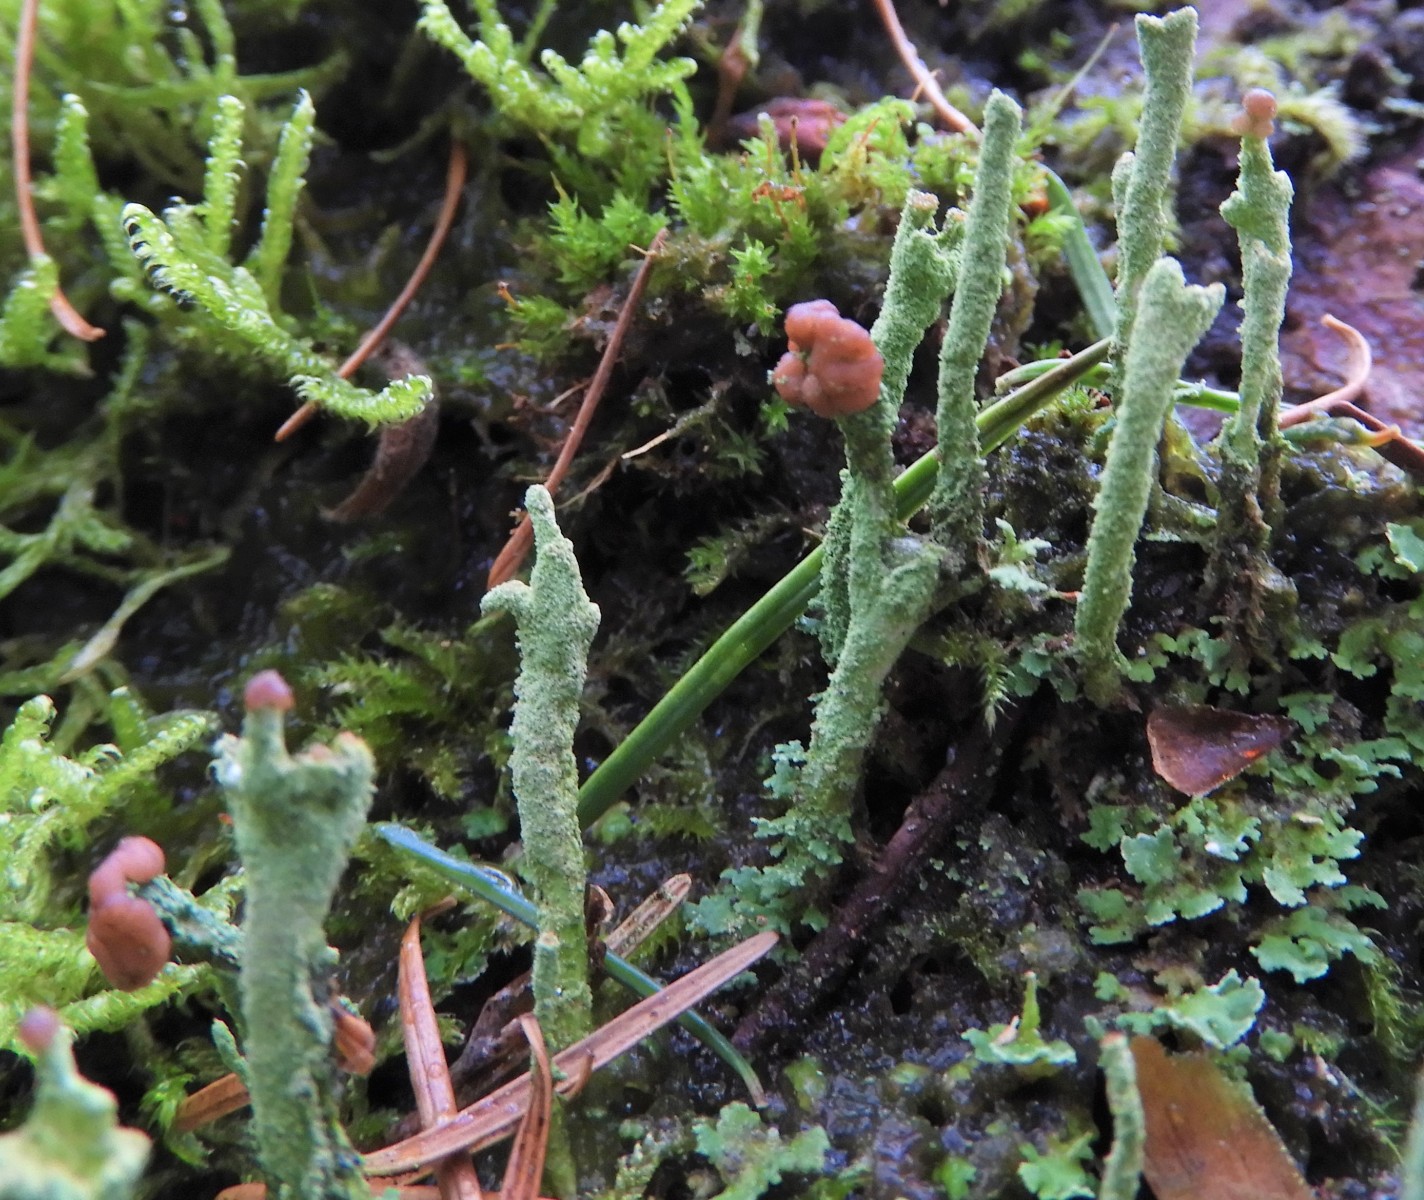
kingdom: Fungi
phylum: Ascomycota
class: Lecanoromycetes
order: Lecanorales
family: Cladoniaceae
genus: Cladonia
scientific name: Cladonia ramulosa
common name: kliddet bægerlav
